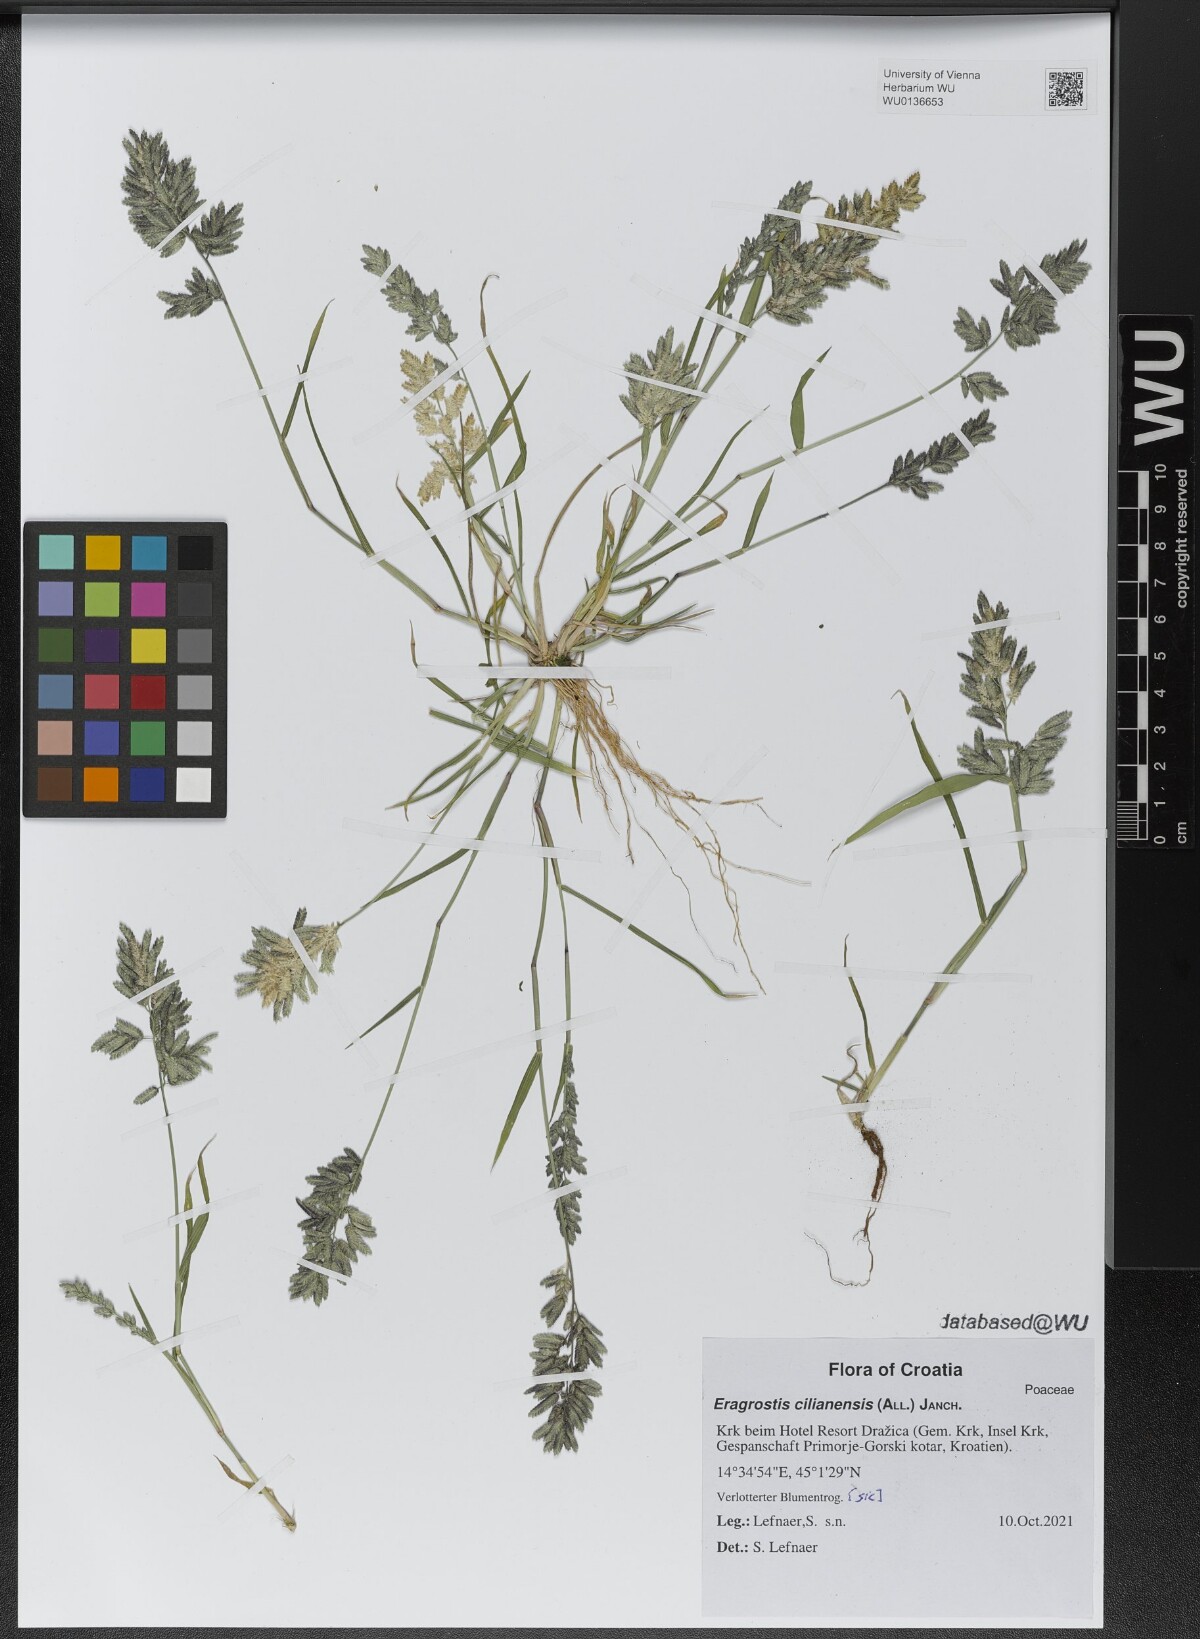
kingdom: Plantae
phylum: Tracheophyta
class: Liliopsida
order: Poales
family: Poaceae
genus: Eragrostis
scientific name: Eragrostis cilianensis
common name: Stinkgrass
